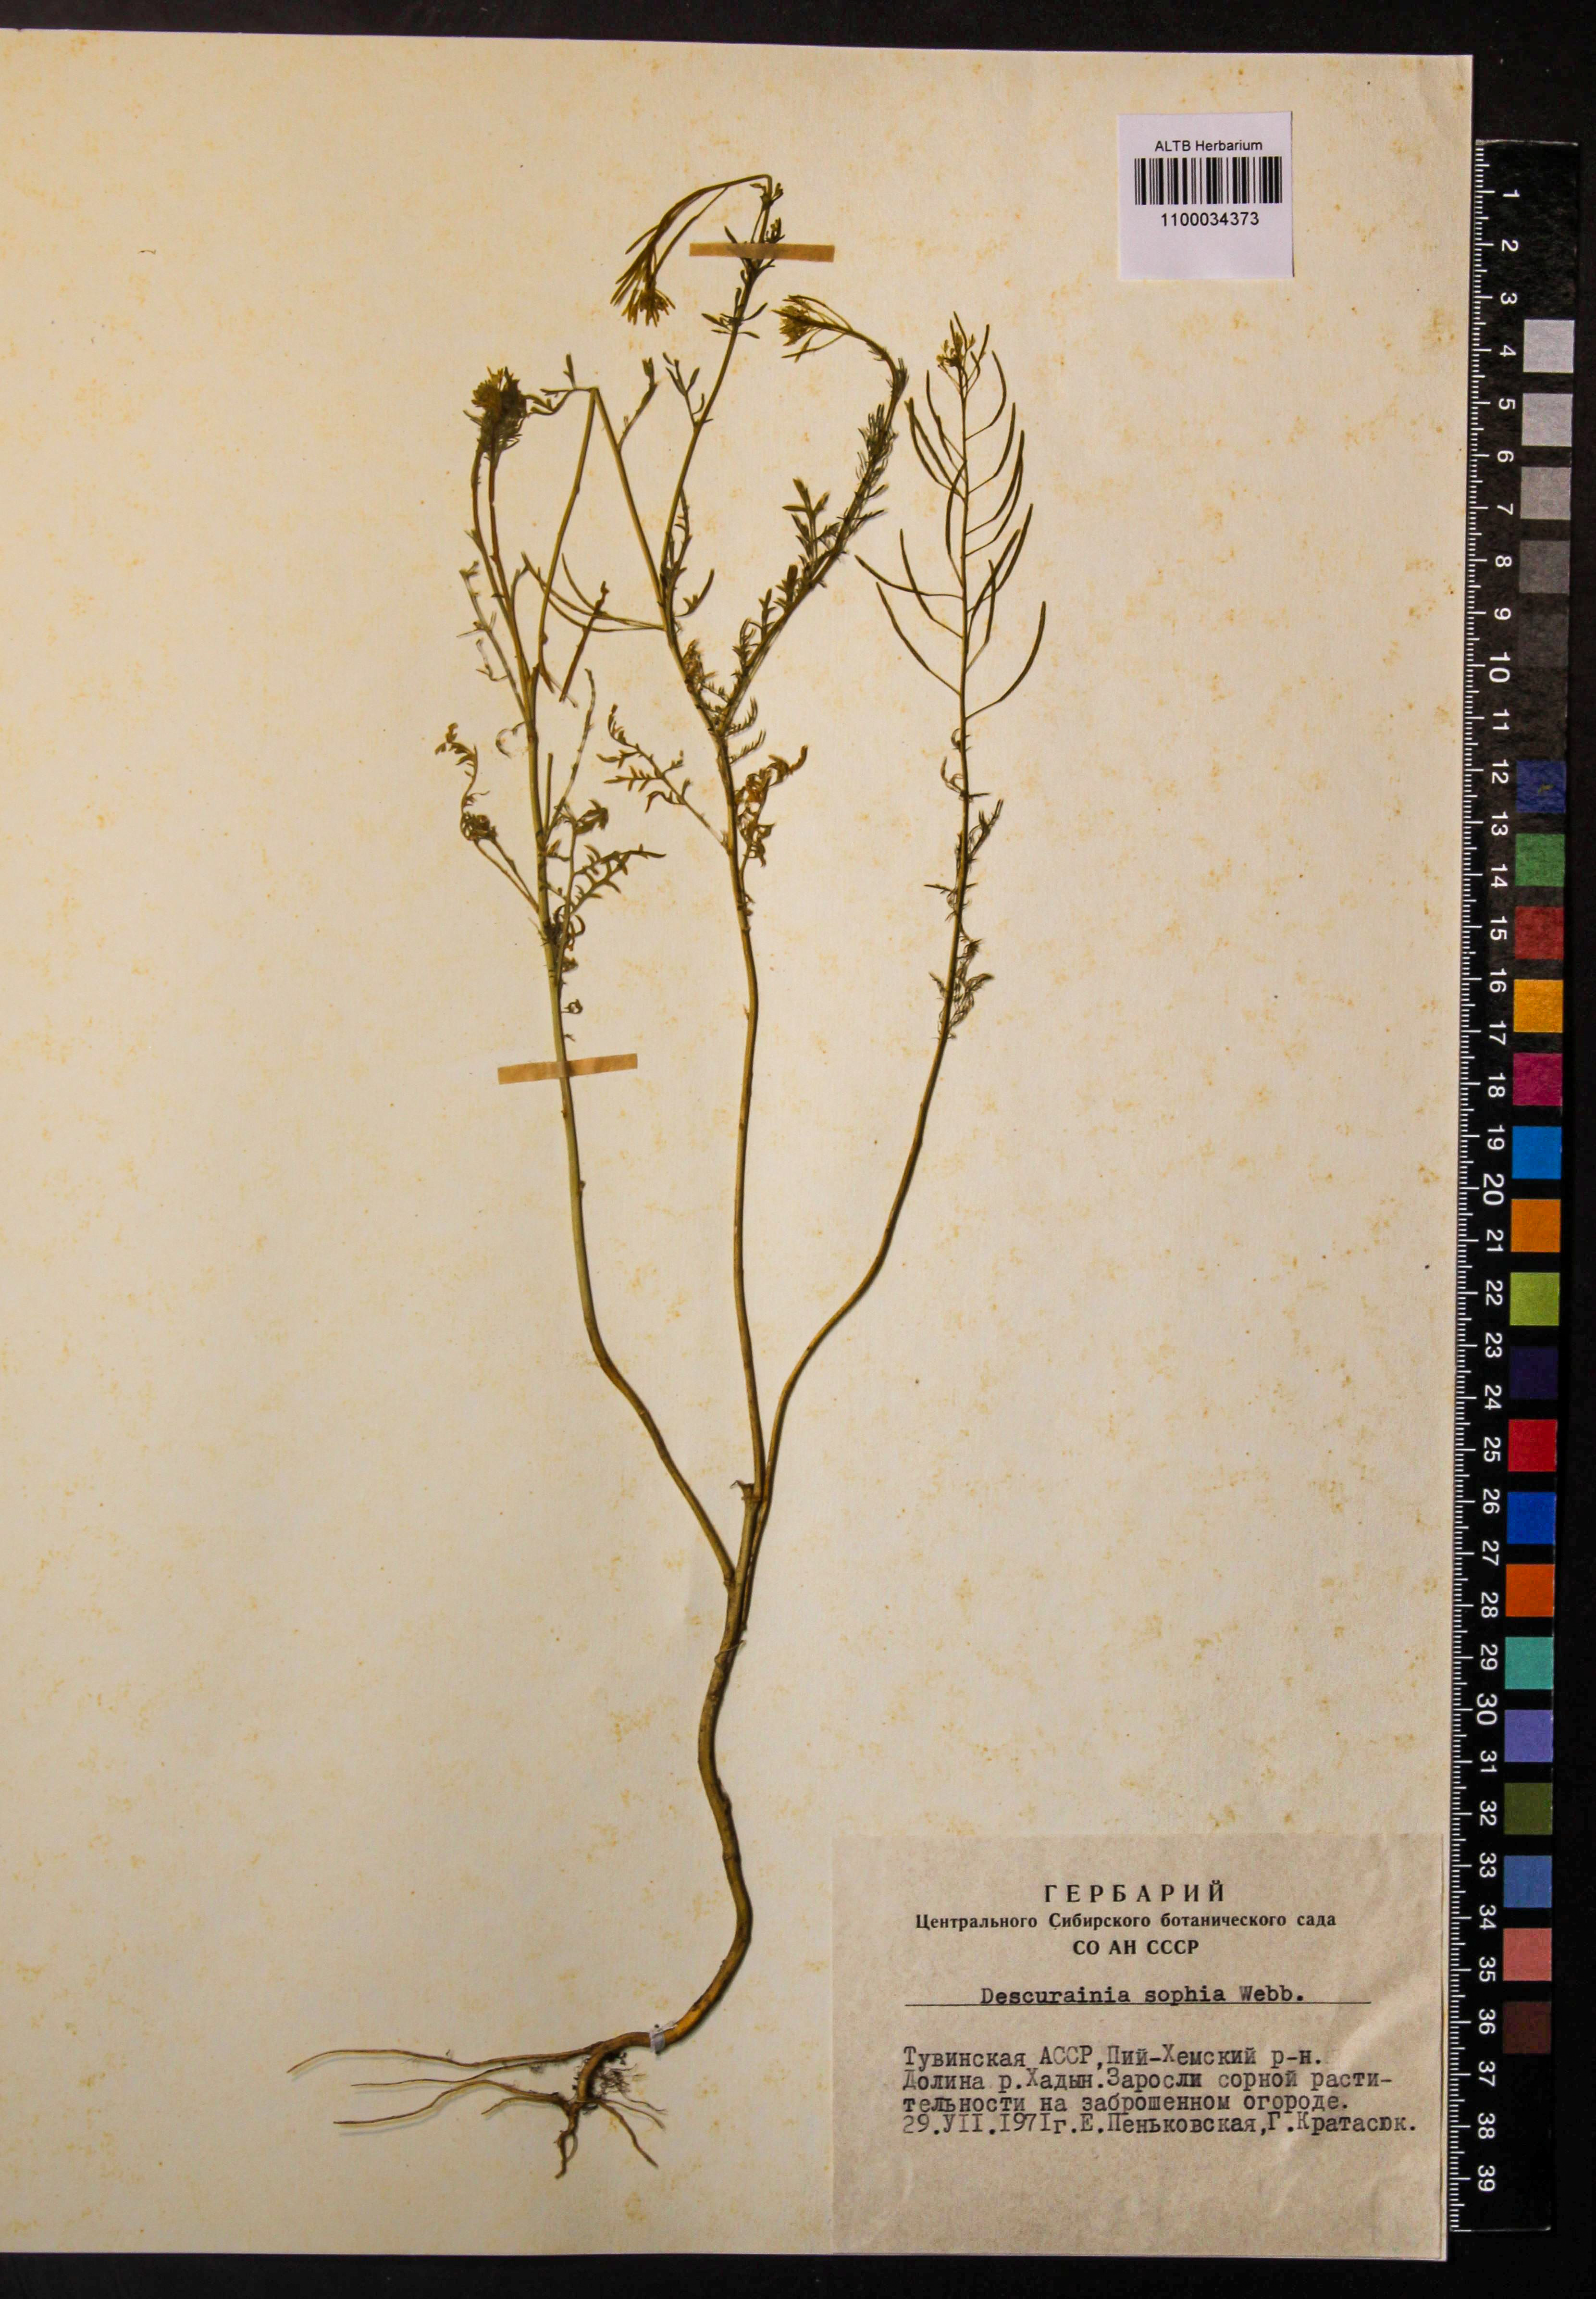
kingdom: Plantae
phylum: Tracheophyta
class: Magnoliopsida
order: Brassicales
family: Brassicaceae
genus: Descurainia
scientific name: Descurainia sophia
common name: Flixweed
